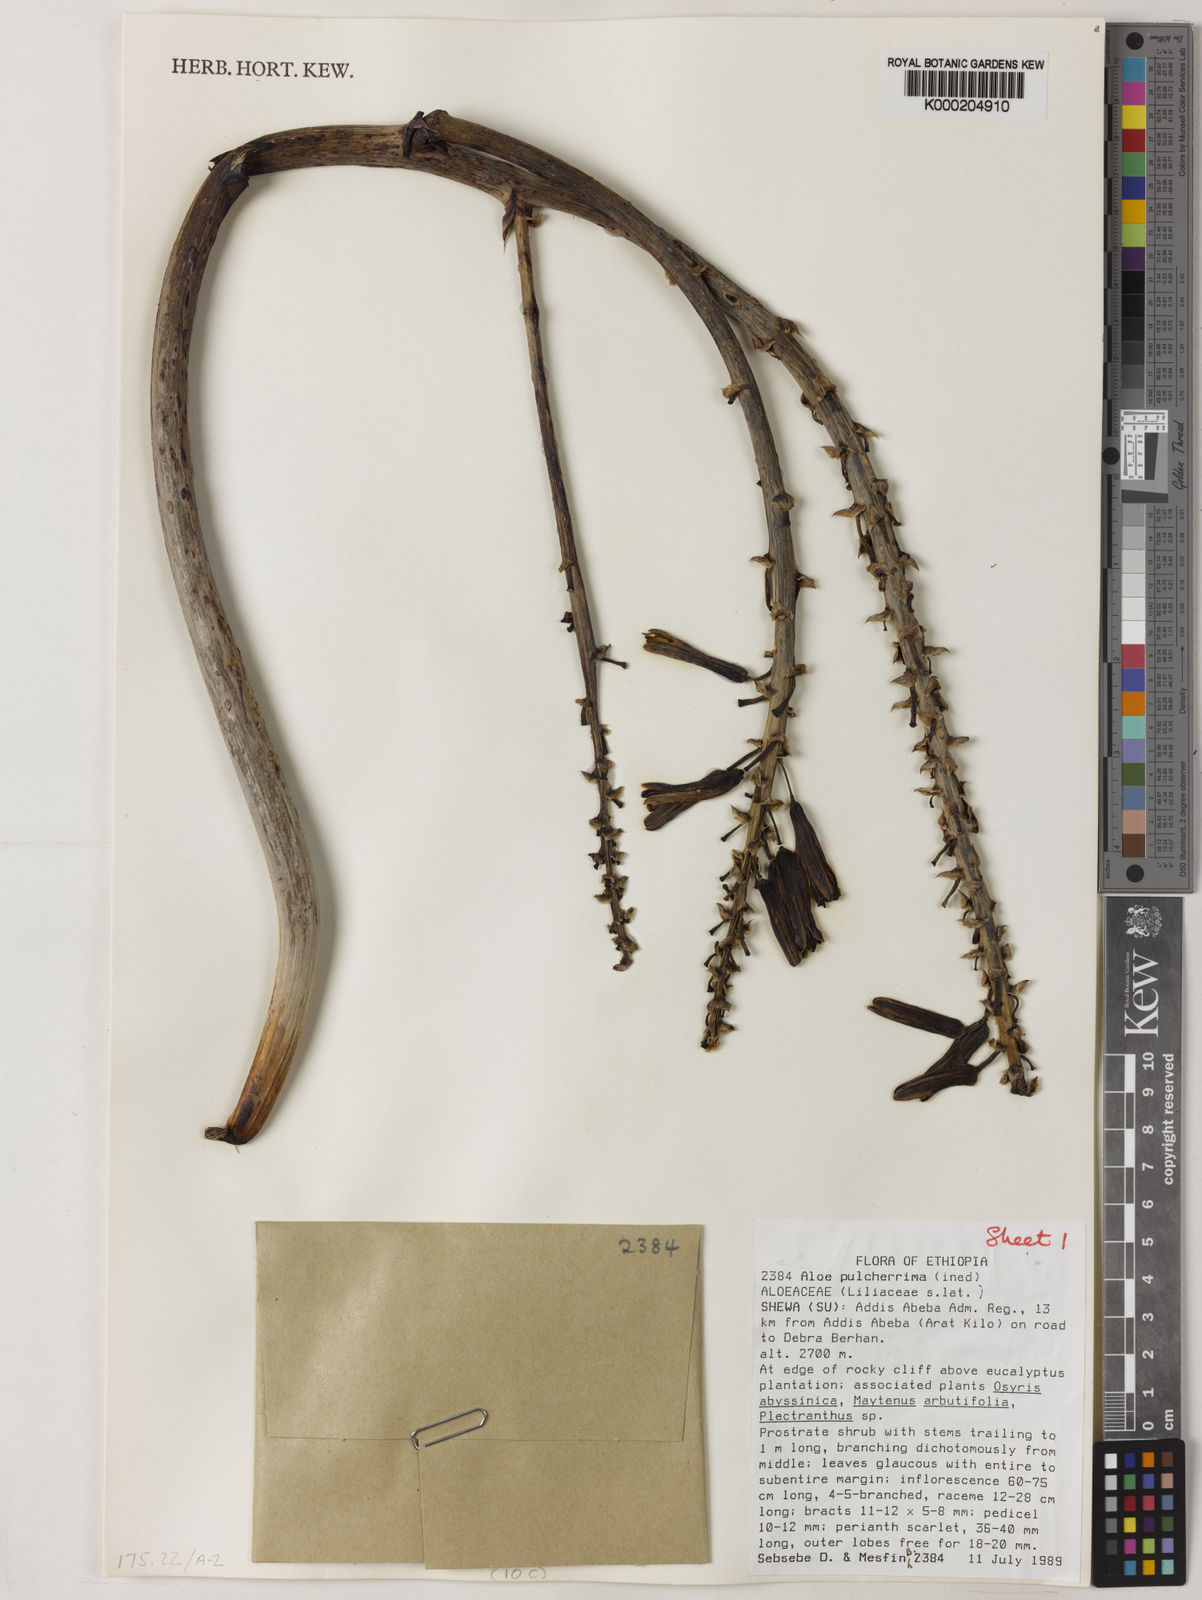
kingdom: Plantae
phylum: Tracheophyta
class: Liliopsida
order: Asparagales
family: Asphodelaceae
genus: Aloe
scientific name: Aloe pulcherrima
